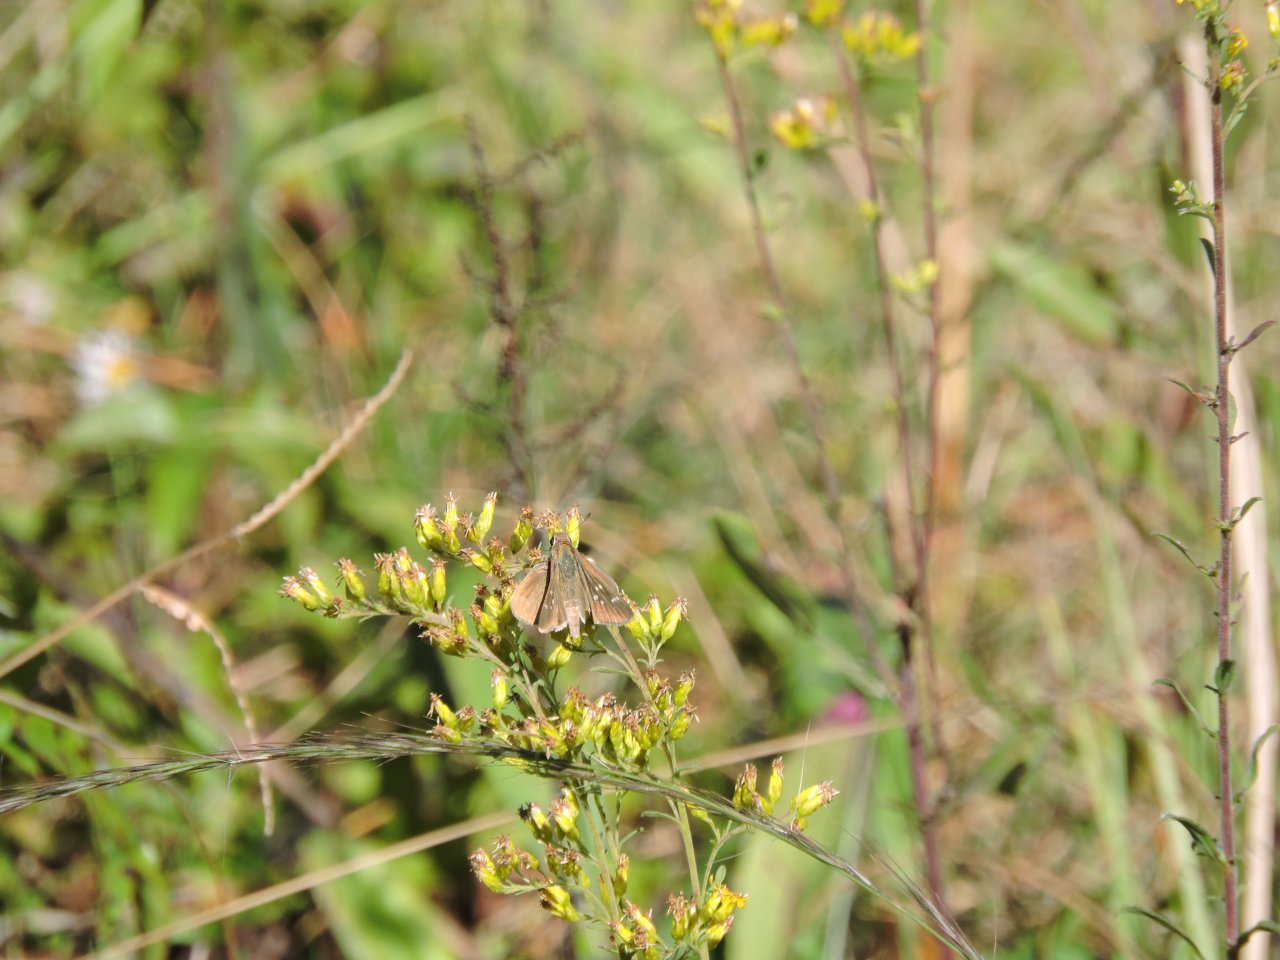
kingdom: Animalia
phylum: Arthropoda
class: Insecta
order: Lepidoptera
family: Hesperiidae
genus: Lerodea
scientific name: Lerodea eufala
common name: Eufala Skipper
